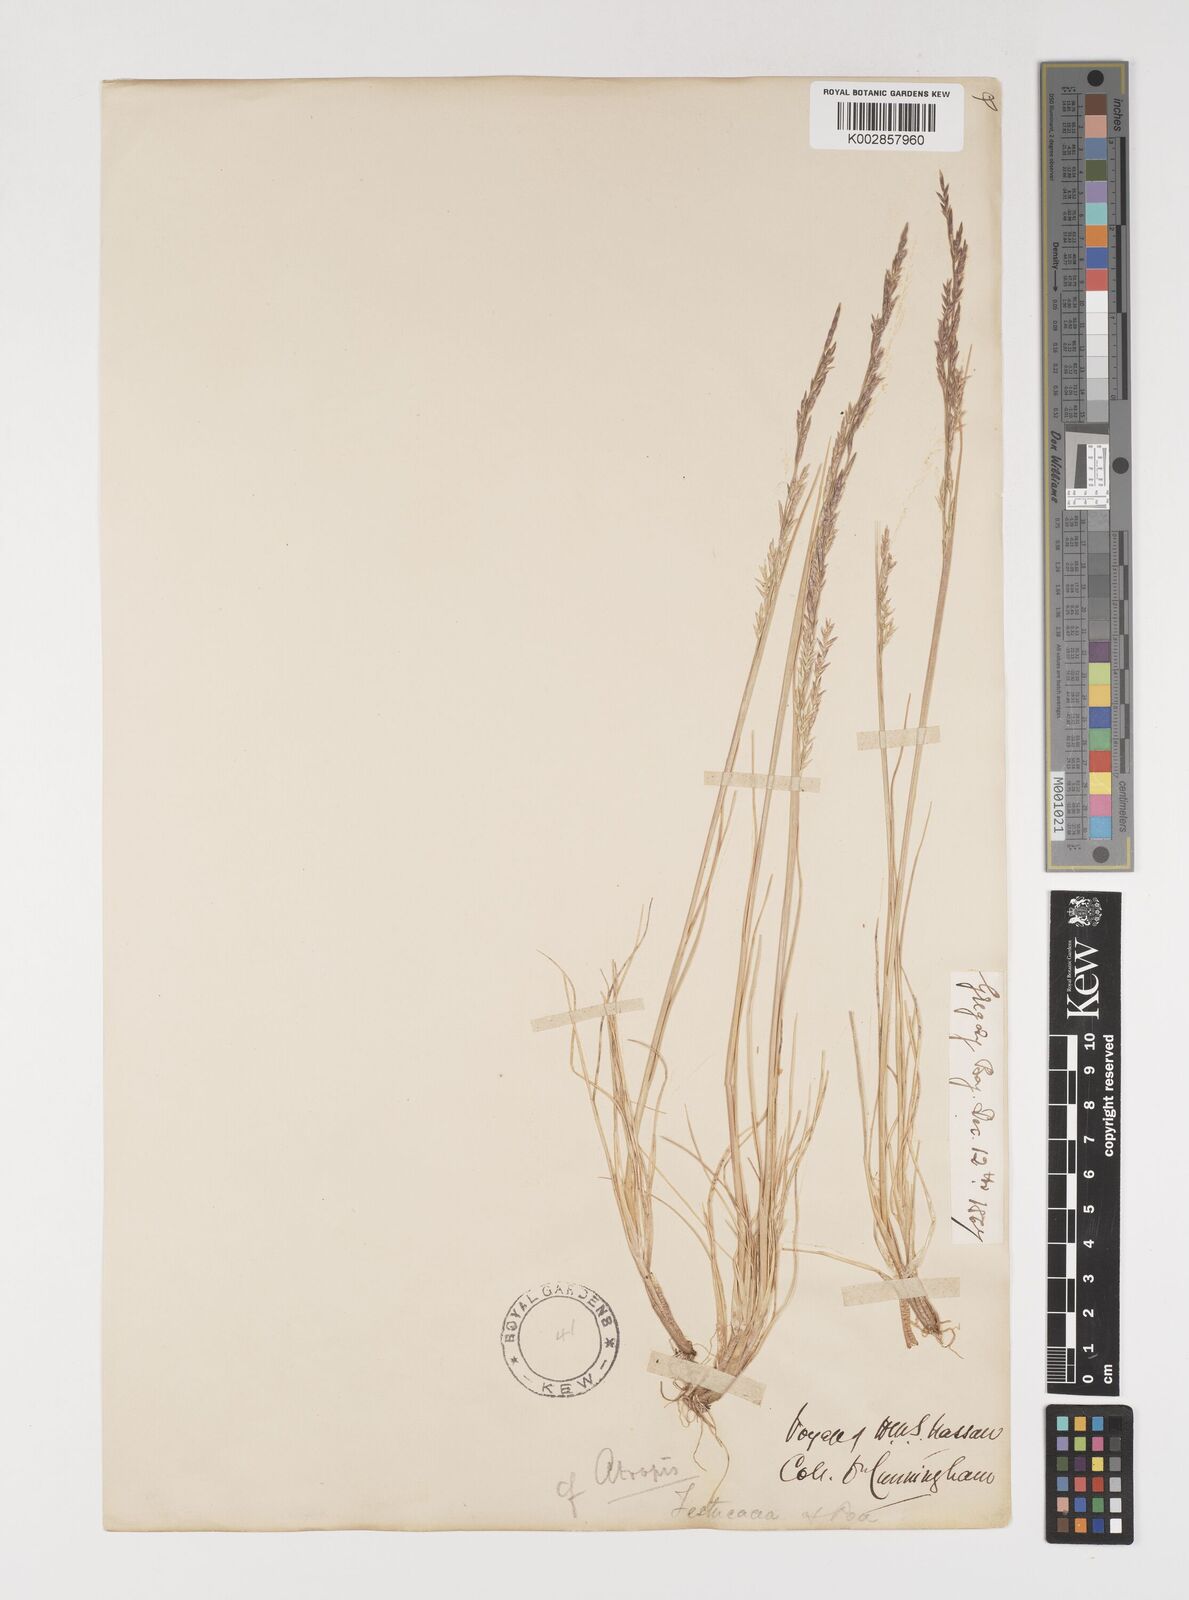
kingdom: Plantae
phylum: Tracheophyta
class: Liliopsida
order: Poales
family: Poaceae
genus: Puccinellia
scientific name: Puccinellia magellanica
